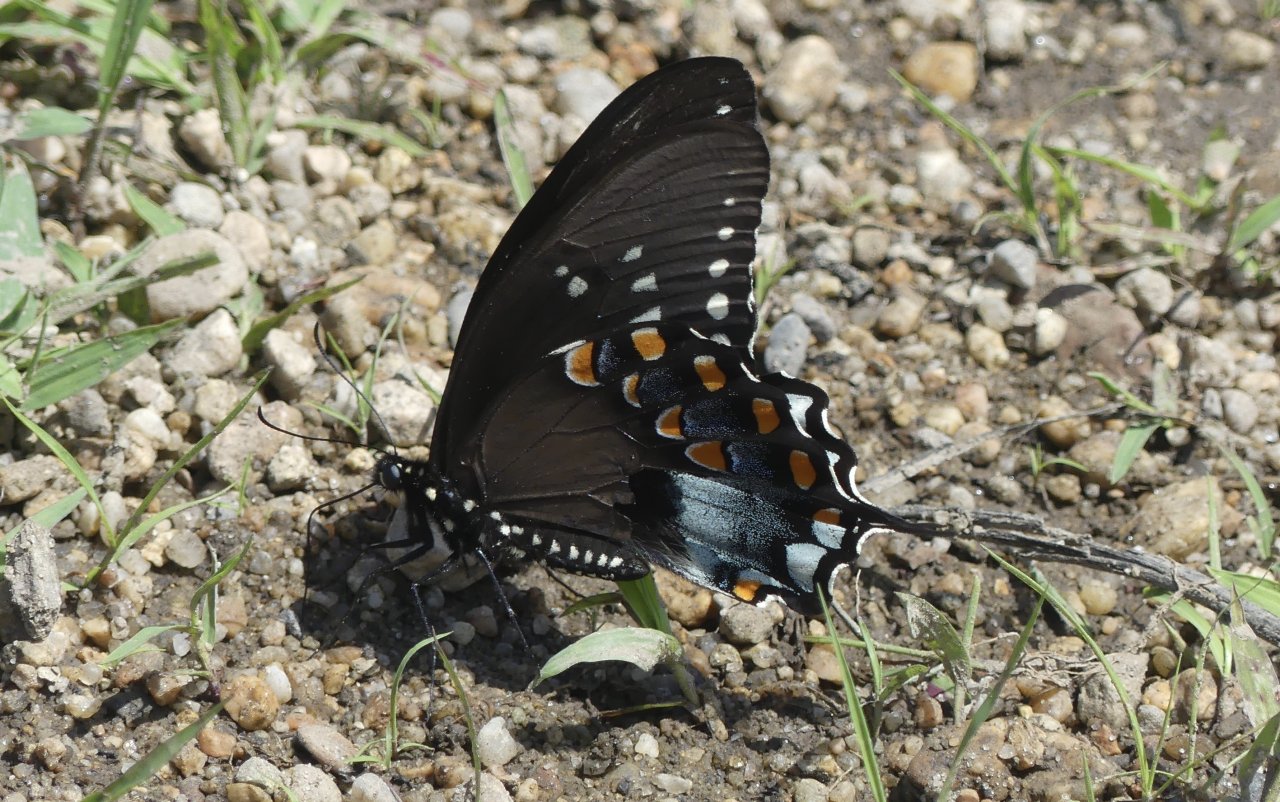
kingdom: Animalia
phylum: Arthropoda
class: Insecta
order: Lepidoptera
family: Papilionidae
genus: Pterourus
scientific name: Pterourus troilus
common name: Spicebush Swallowtail
